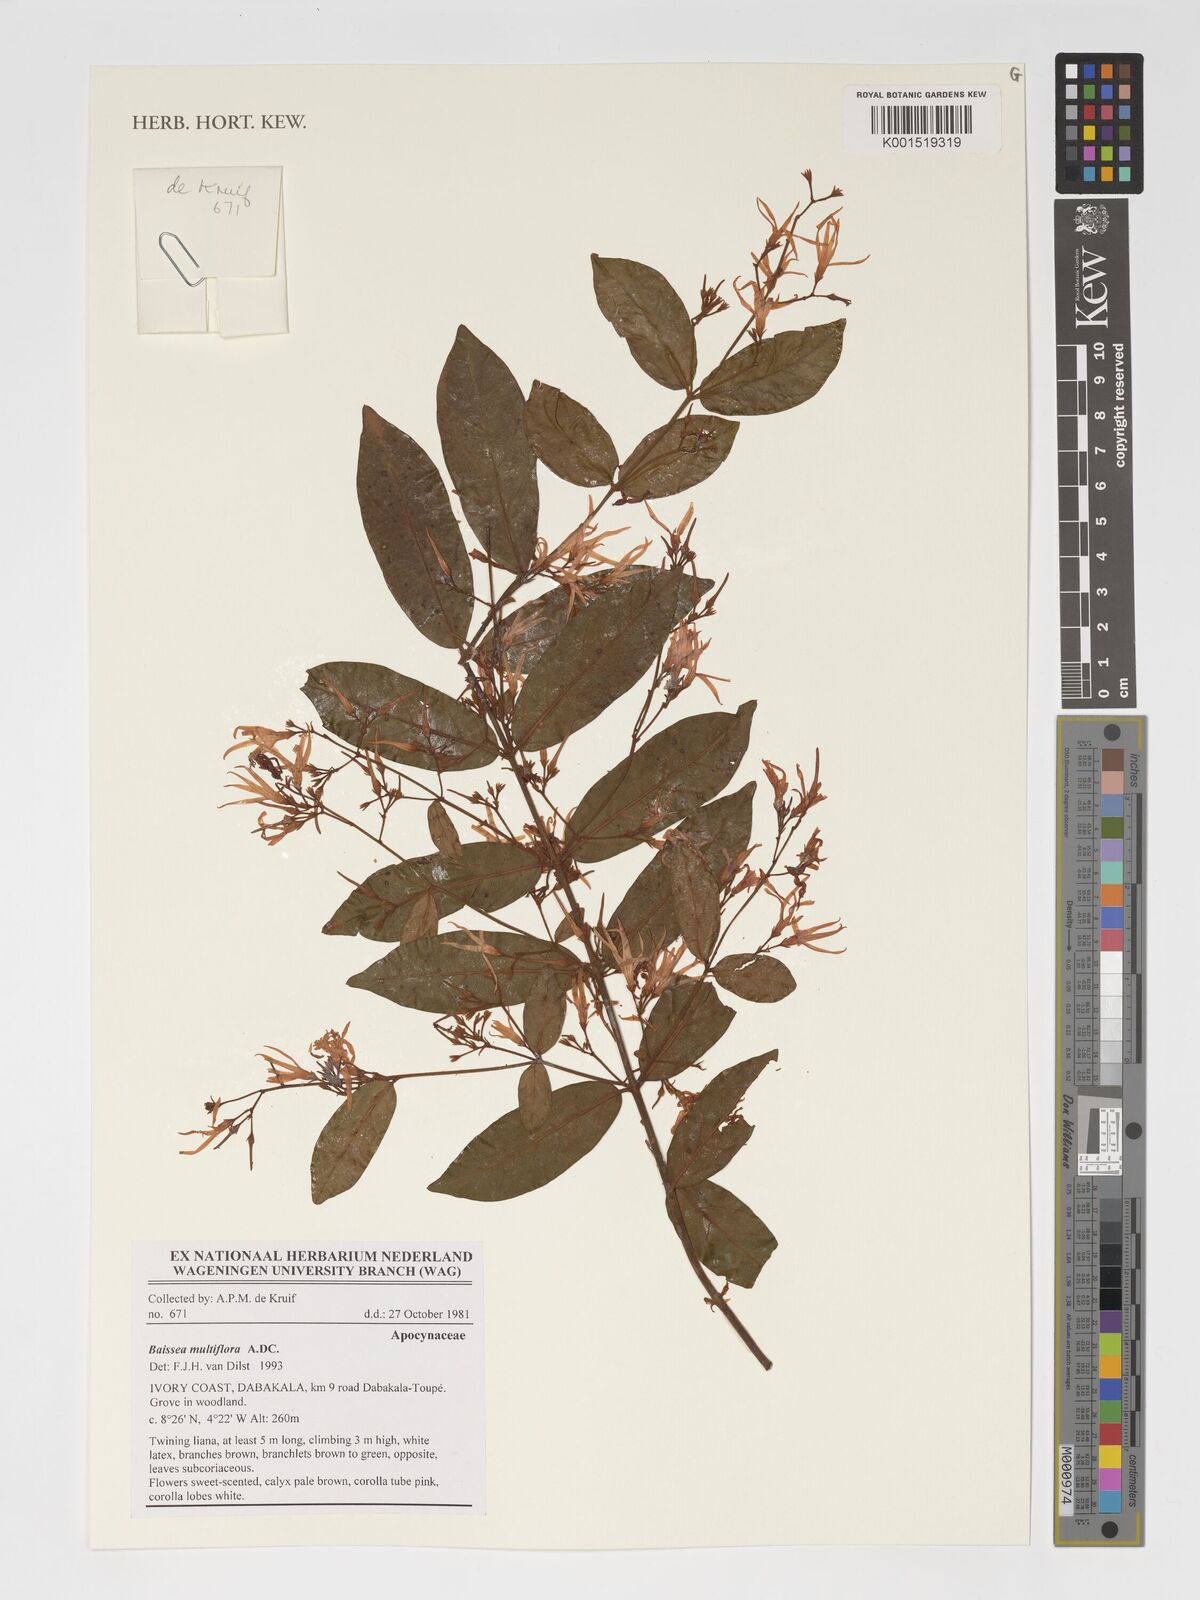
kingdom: Plantae
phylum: Tracheophyta
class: Magnoliopsida
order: Gentianales
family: Apocynaceae
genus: Baissea
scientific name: Baissea multiflora
